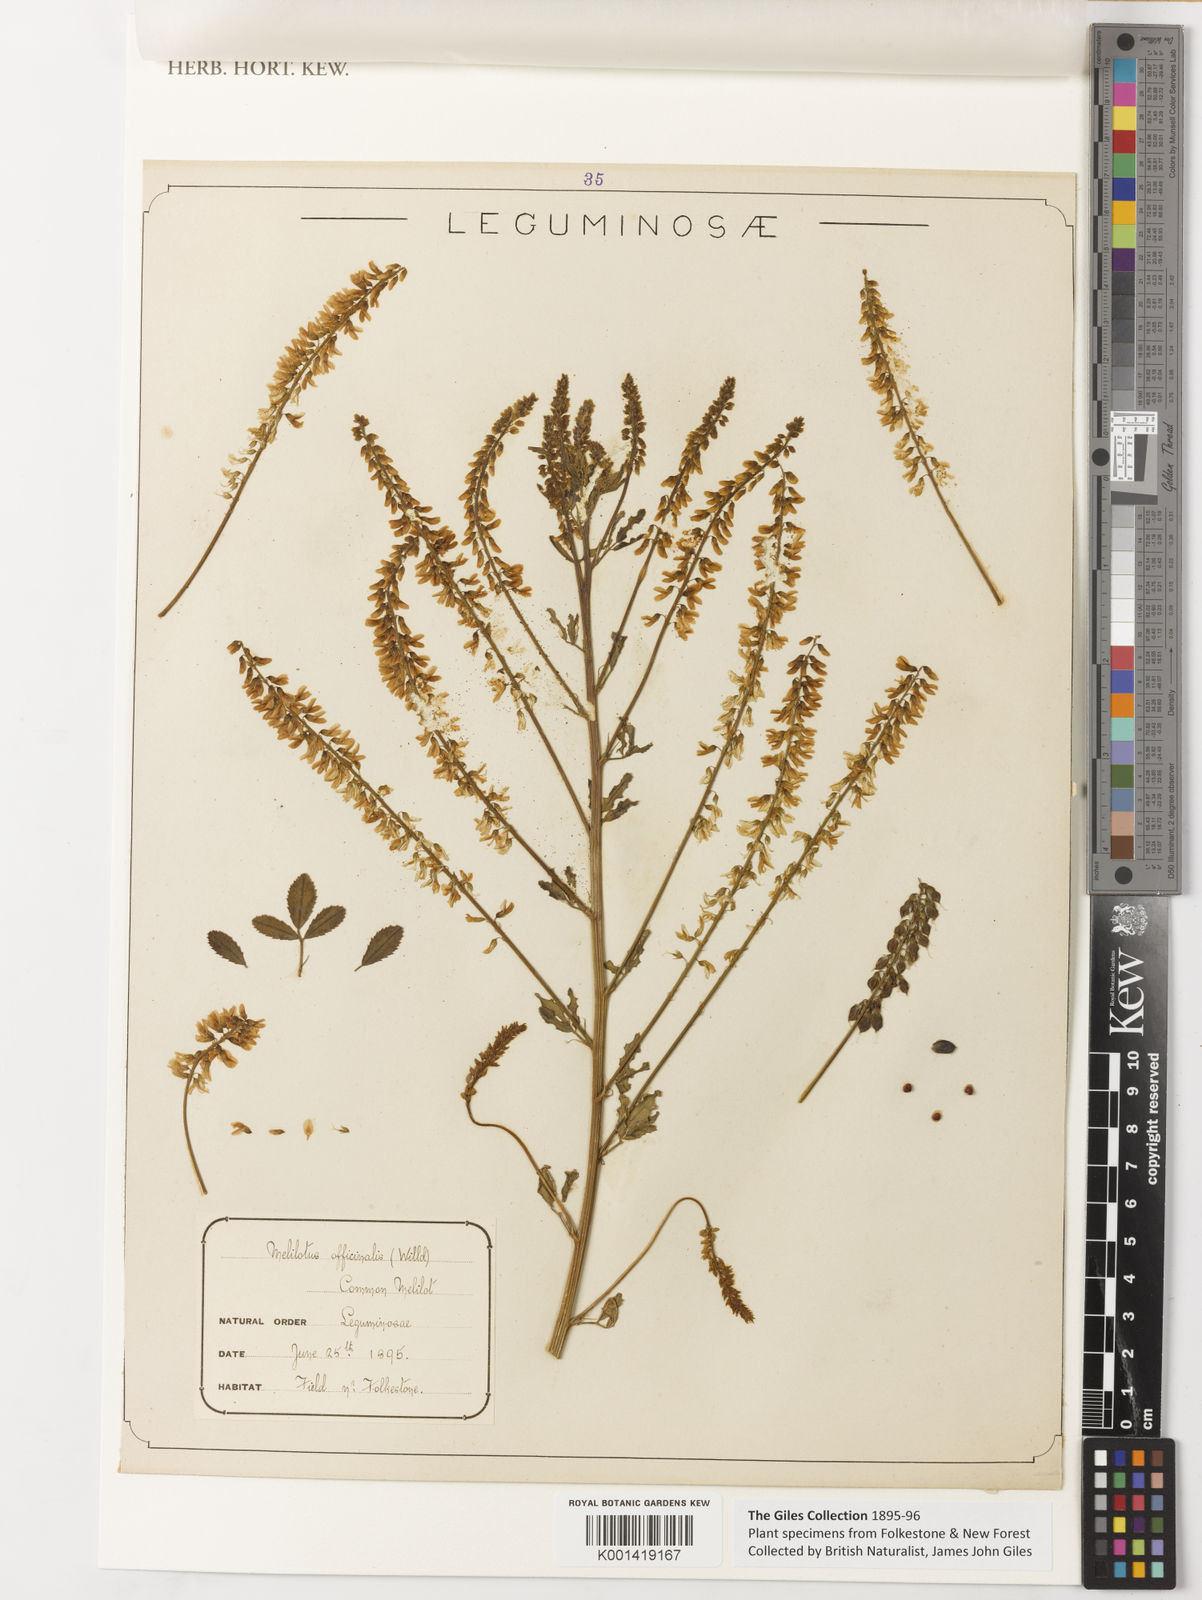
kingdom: Plantae
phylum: Tracheophyta
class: Magnoliopsida
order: Fabales
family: Fabaceae
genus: Melilotus
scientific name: Melilotus
